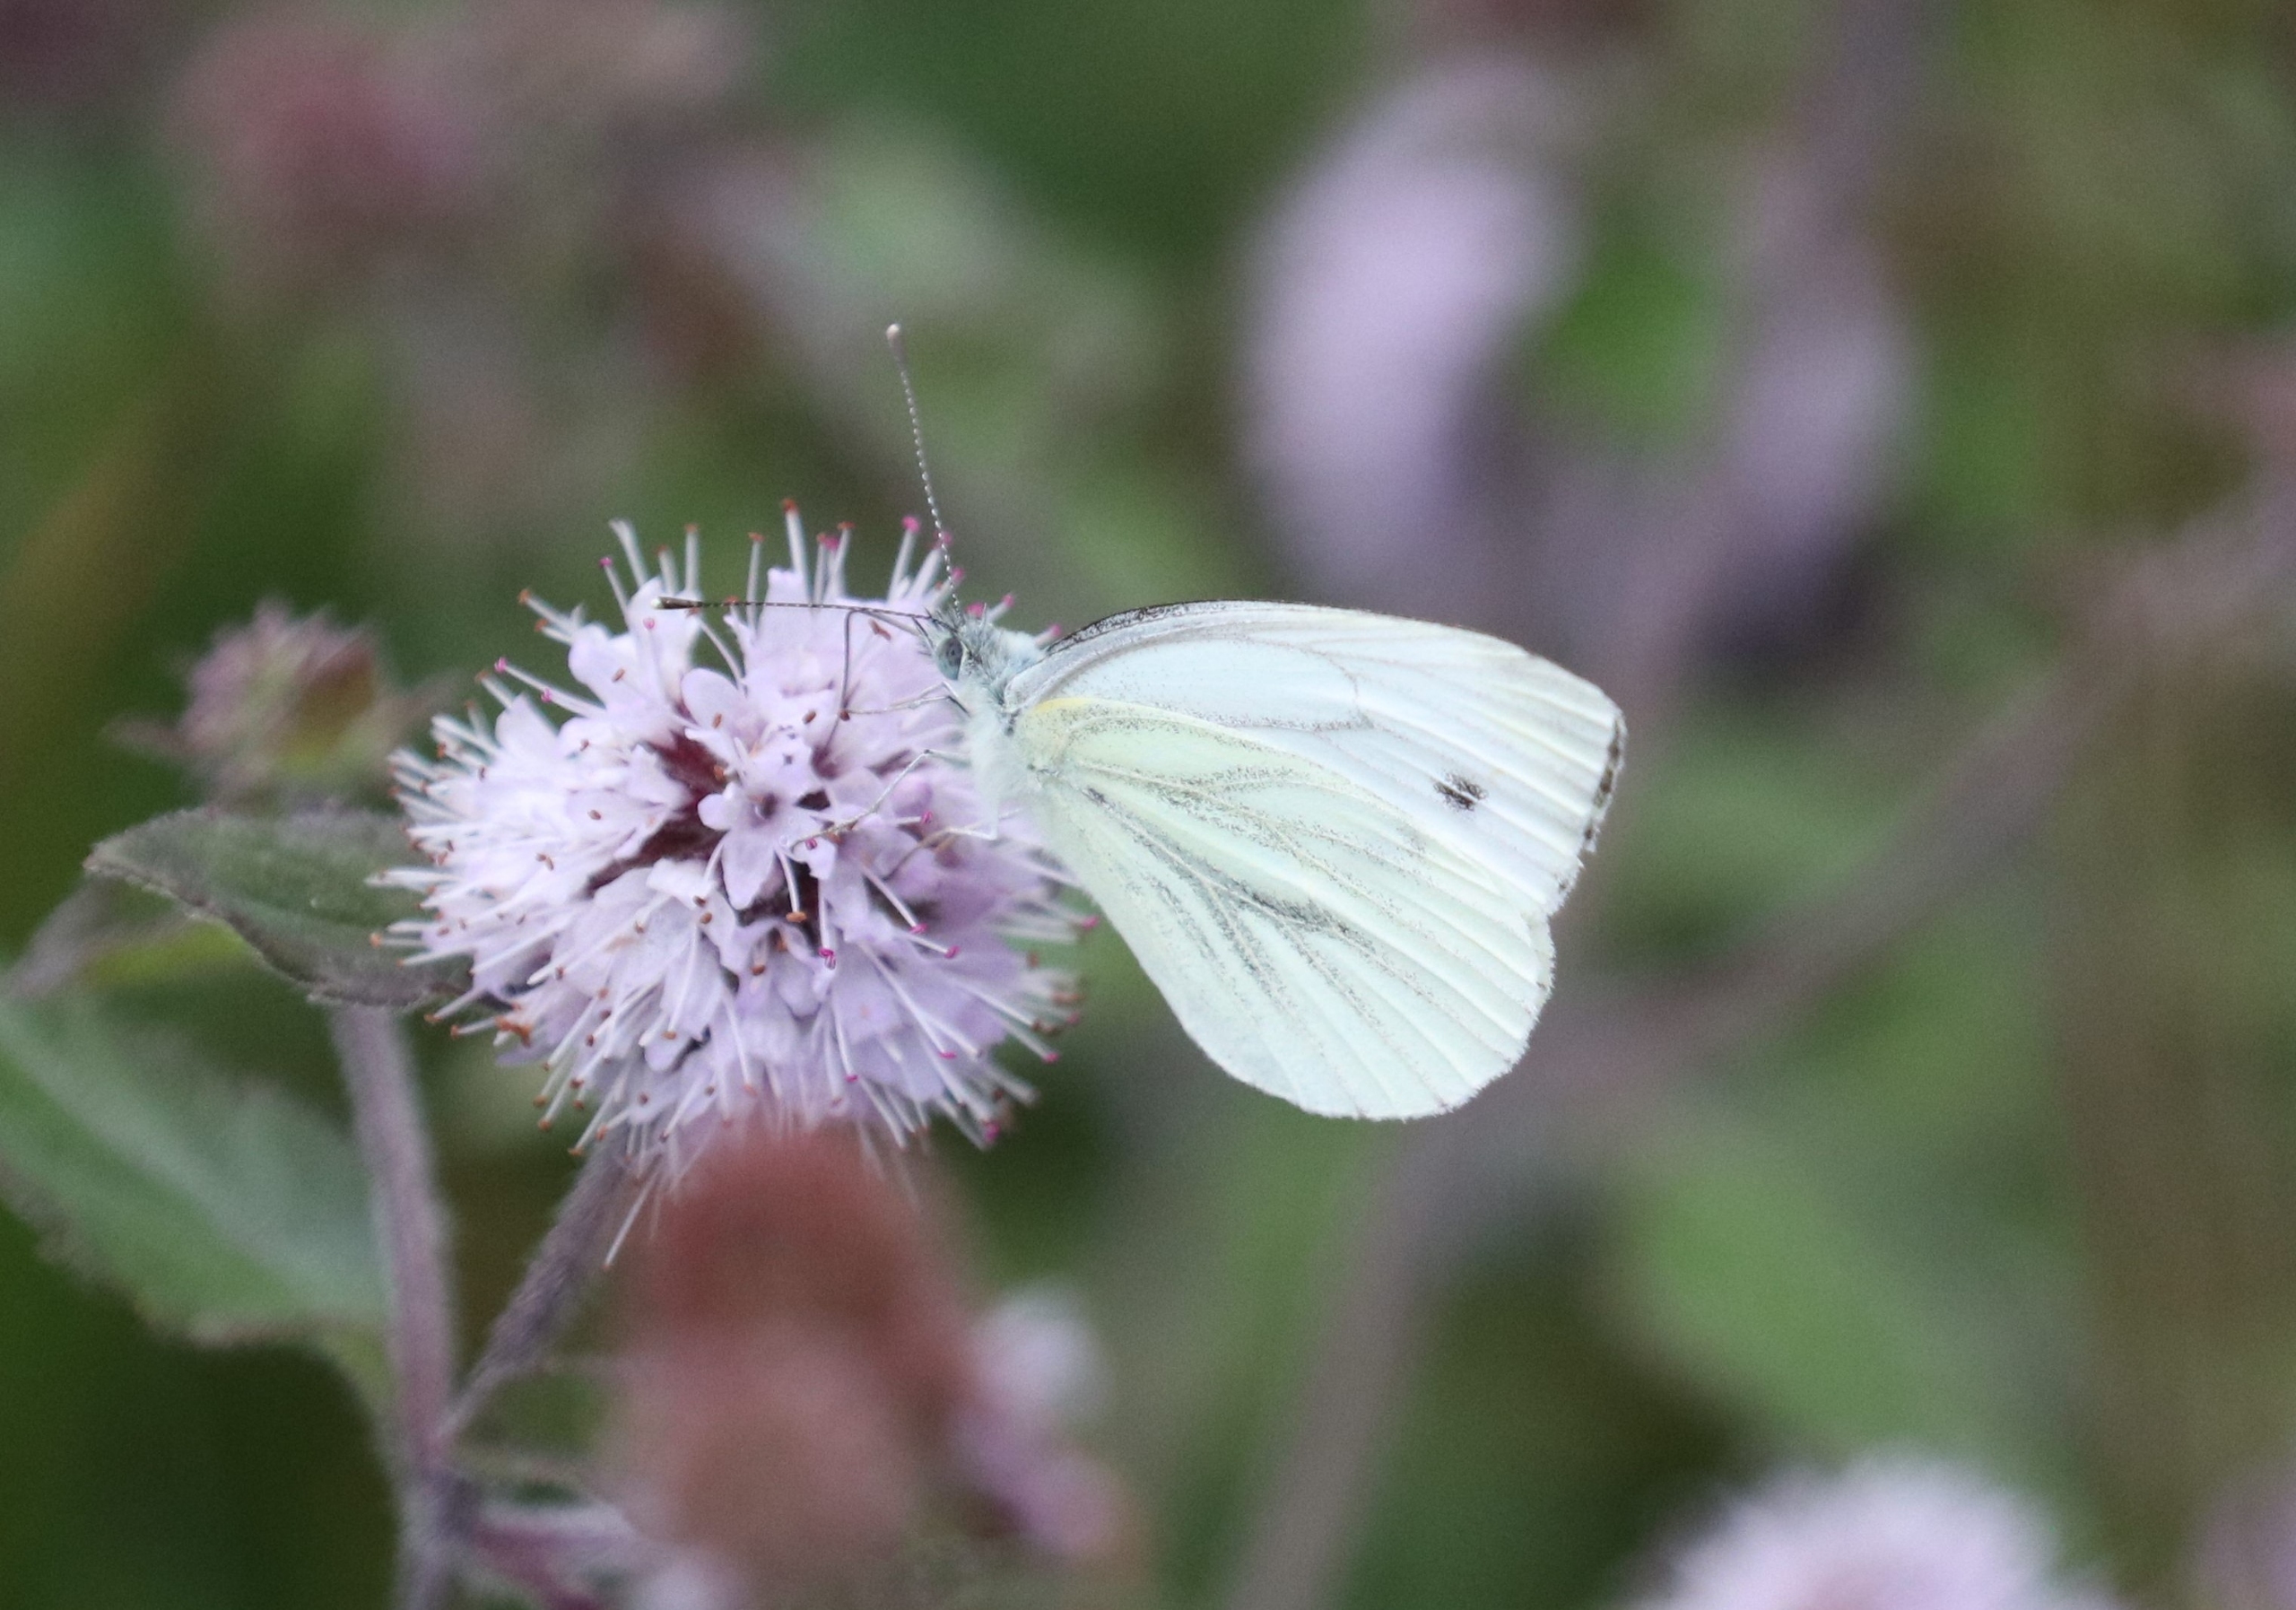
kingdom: Animalia
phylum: Arthropoda
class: Insecta
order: Lepidoptera
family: Pieridae
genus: Pieris
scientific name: Pieris napi
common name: Grønåret kålsommerfugl
